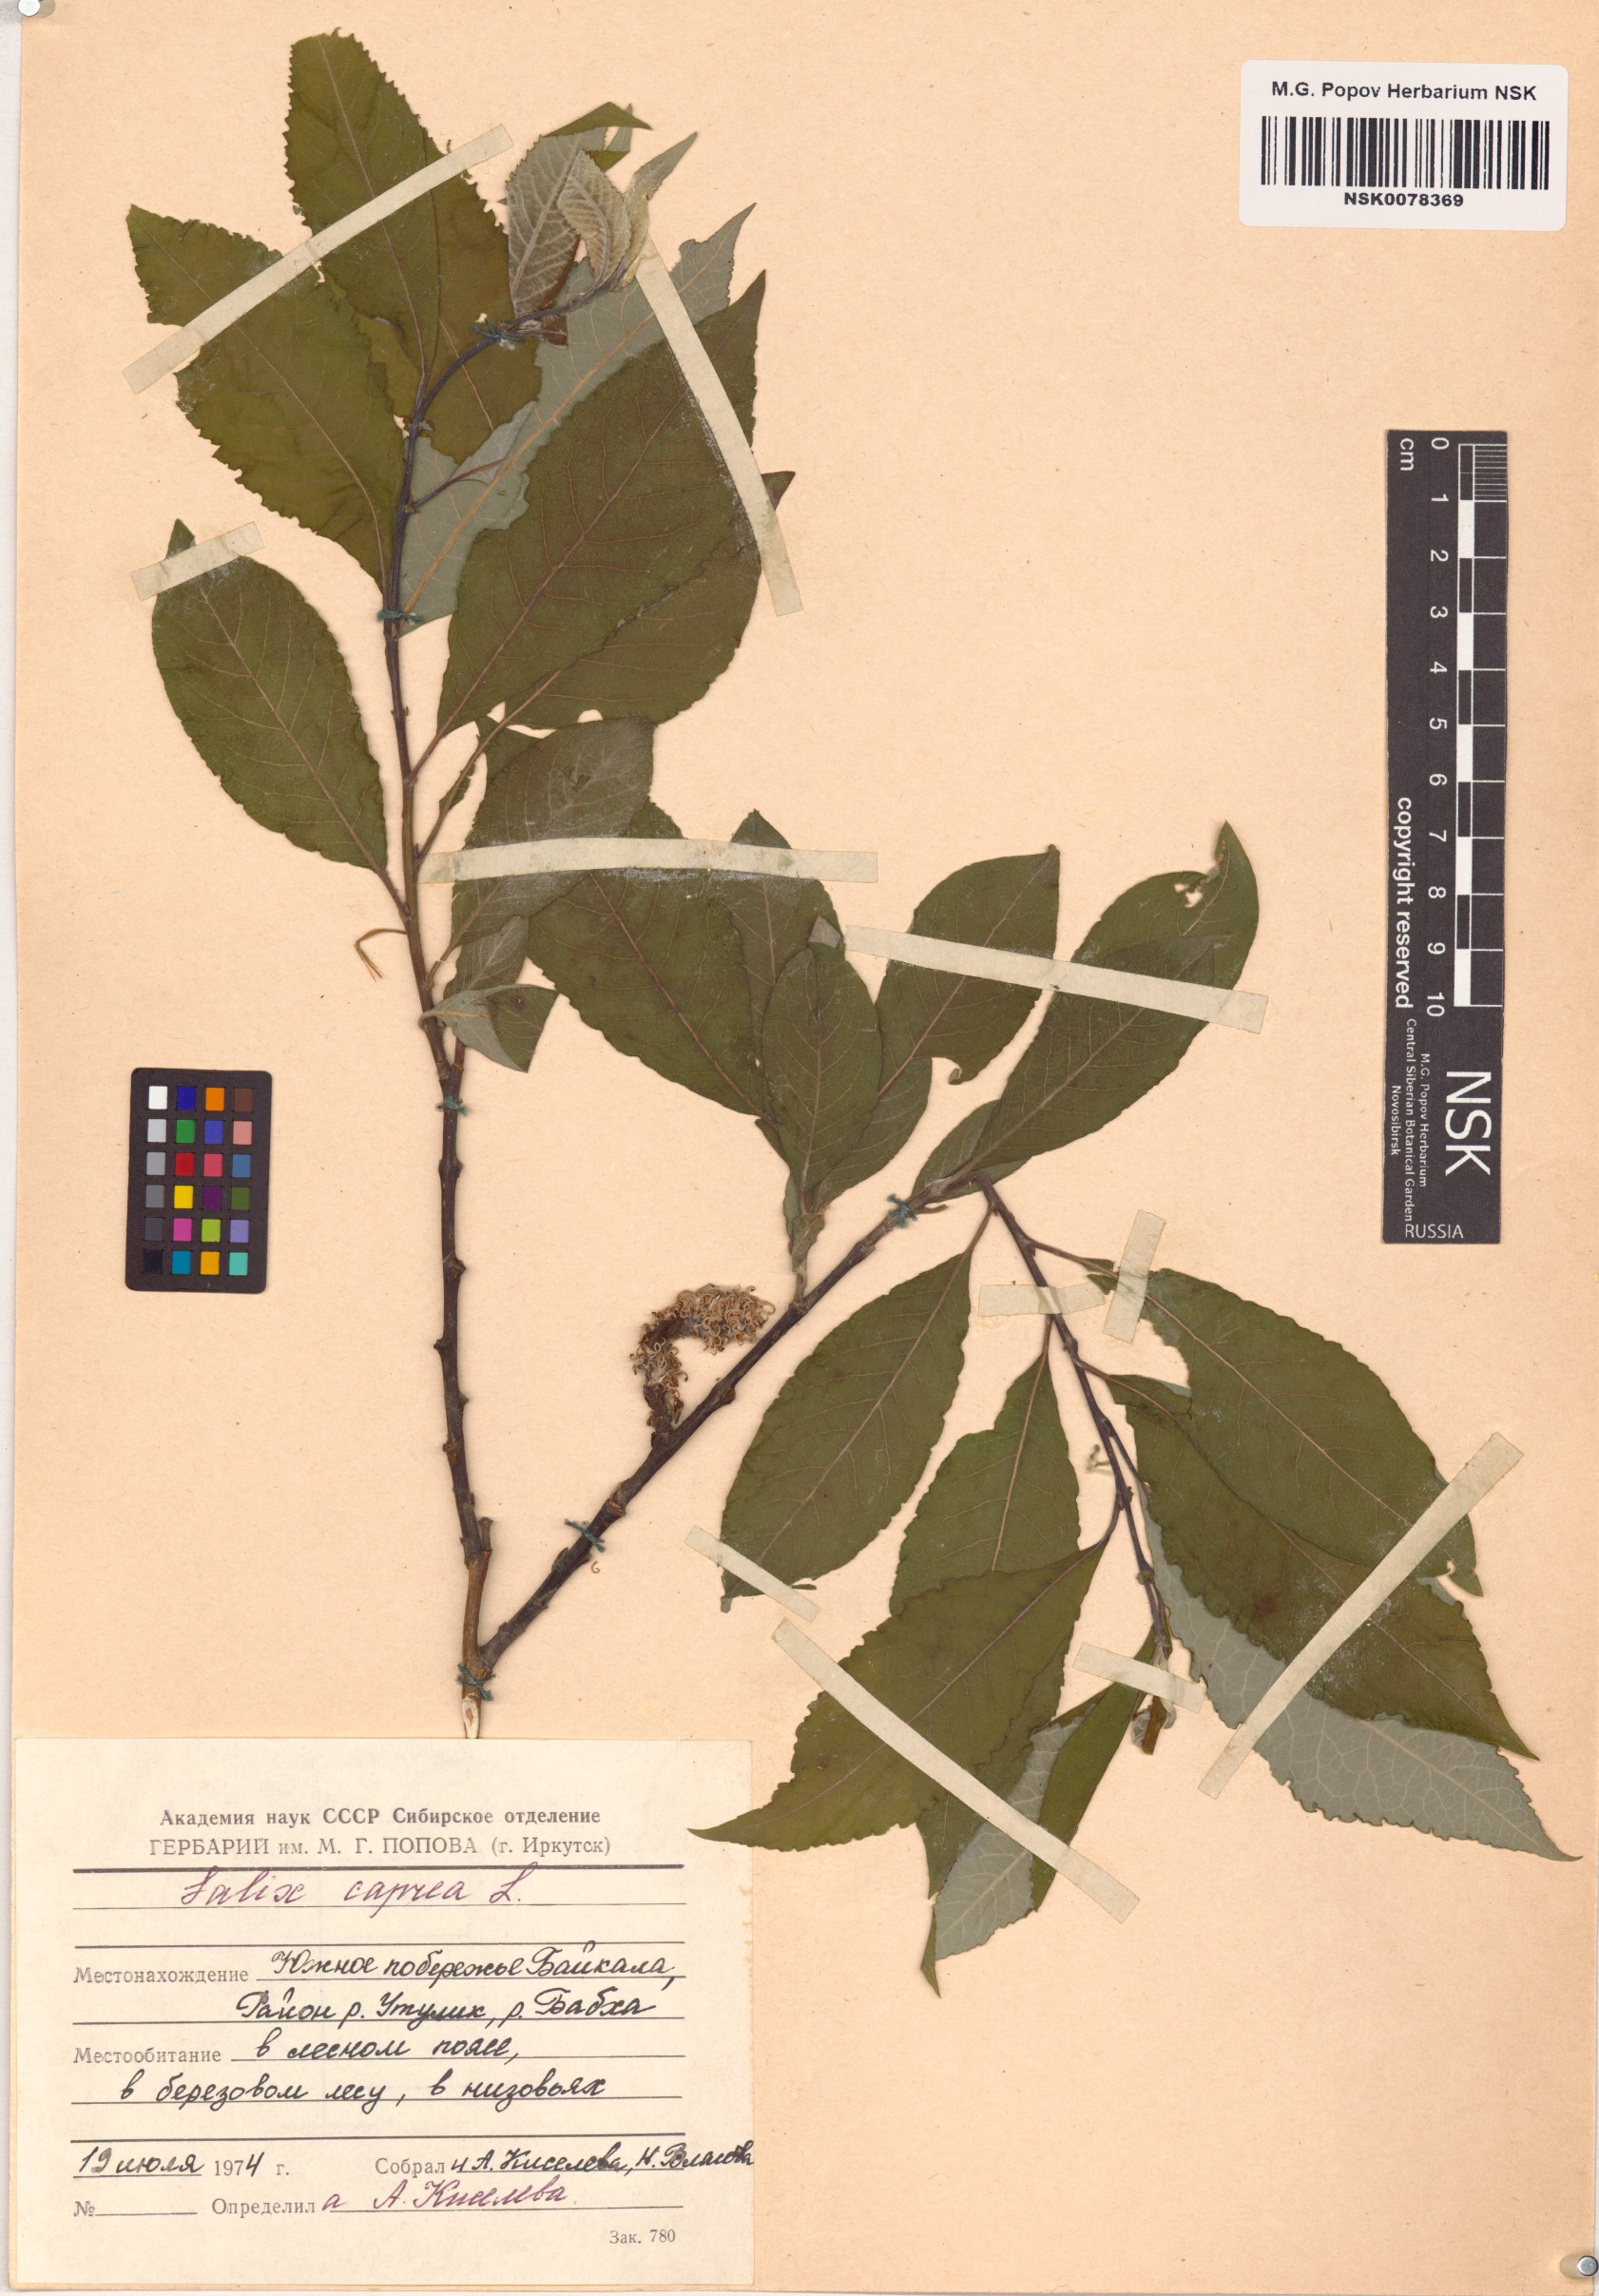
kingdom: Plantae
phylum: Tracheophyta
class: Magnoliopsida
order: Malpighiales
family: Salicaceae
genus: Salix
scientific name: Salix caprea
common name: Goat willow
